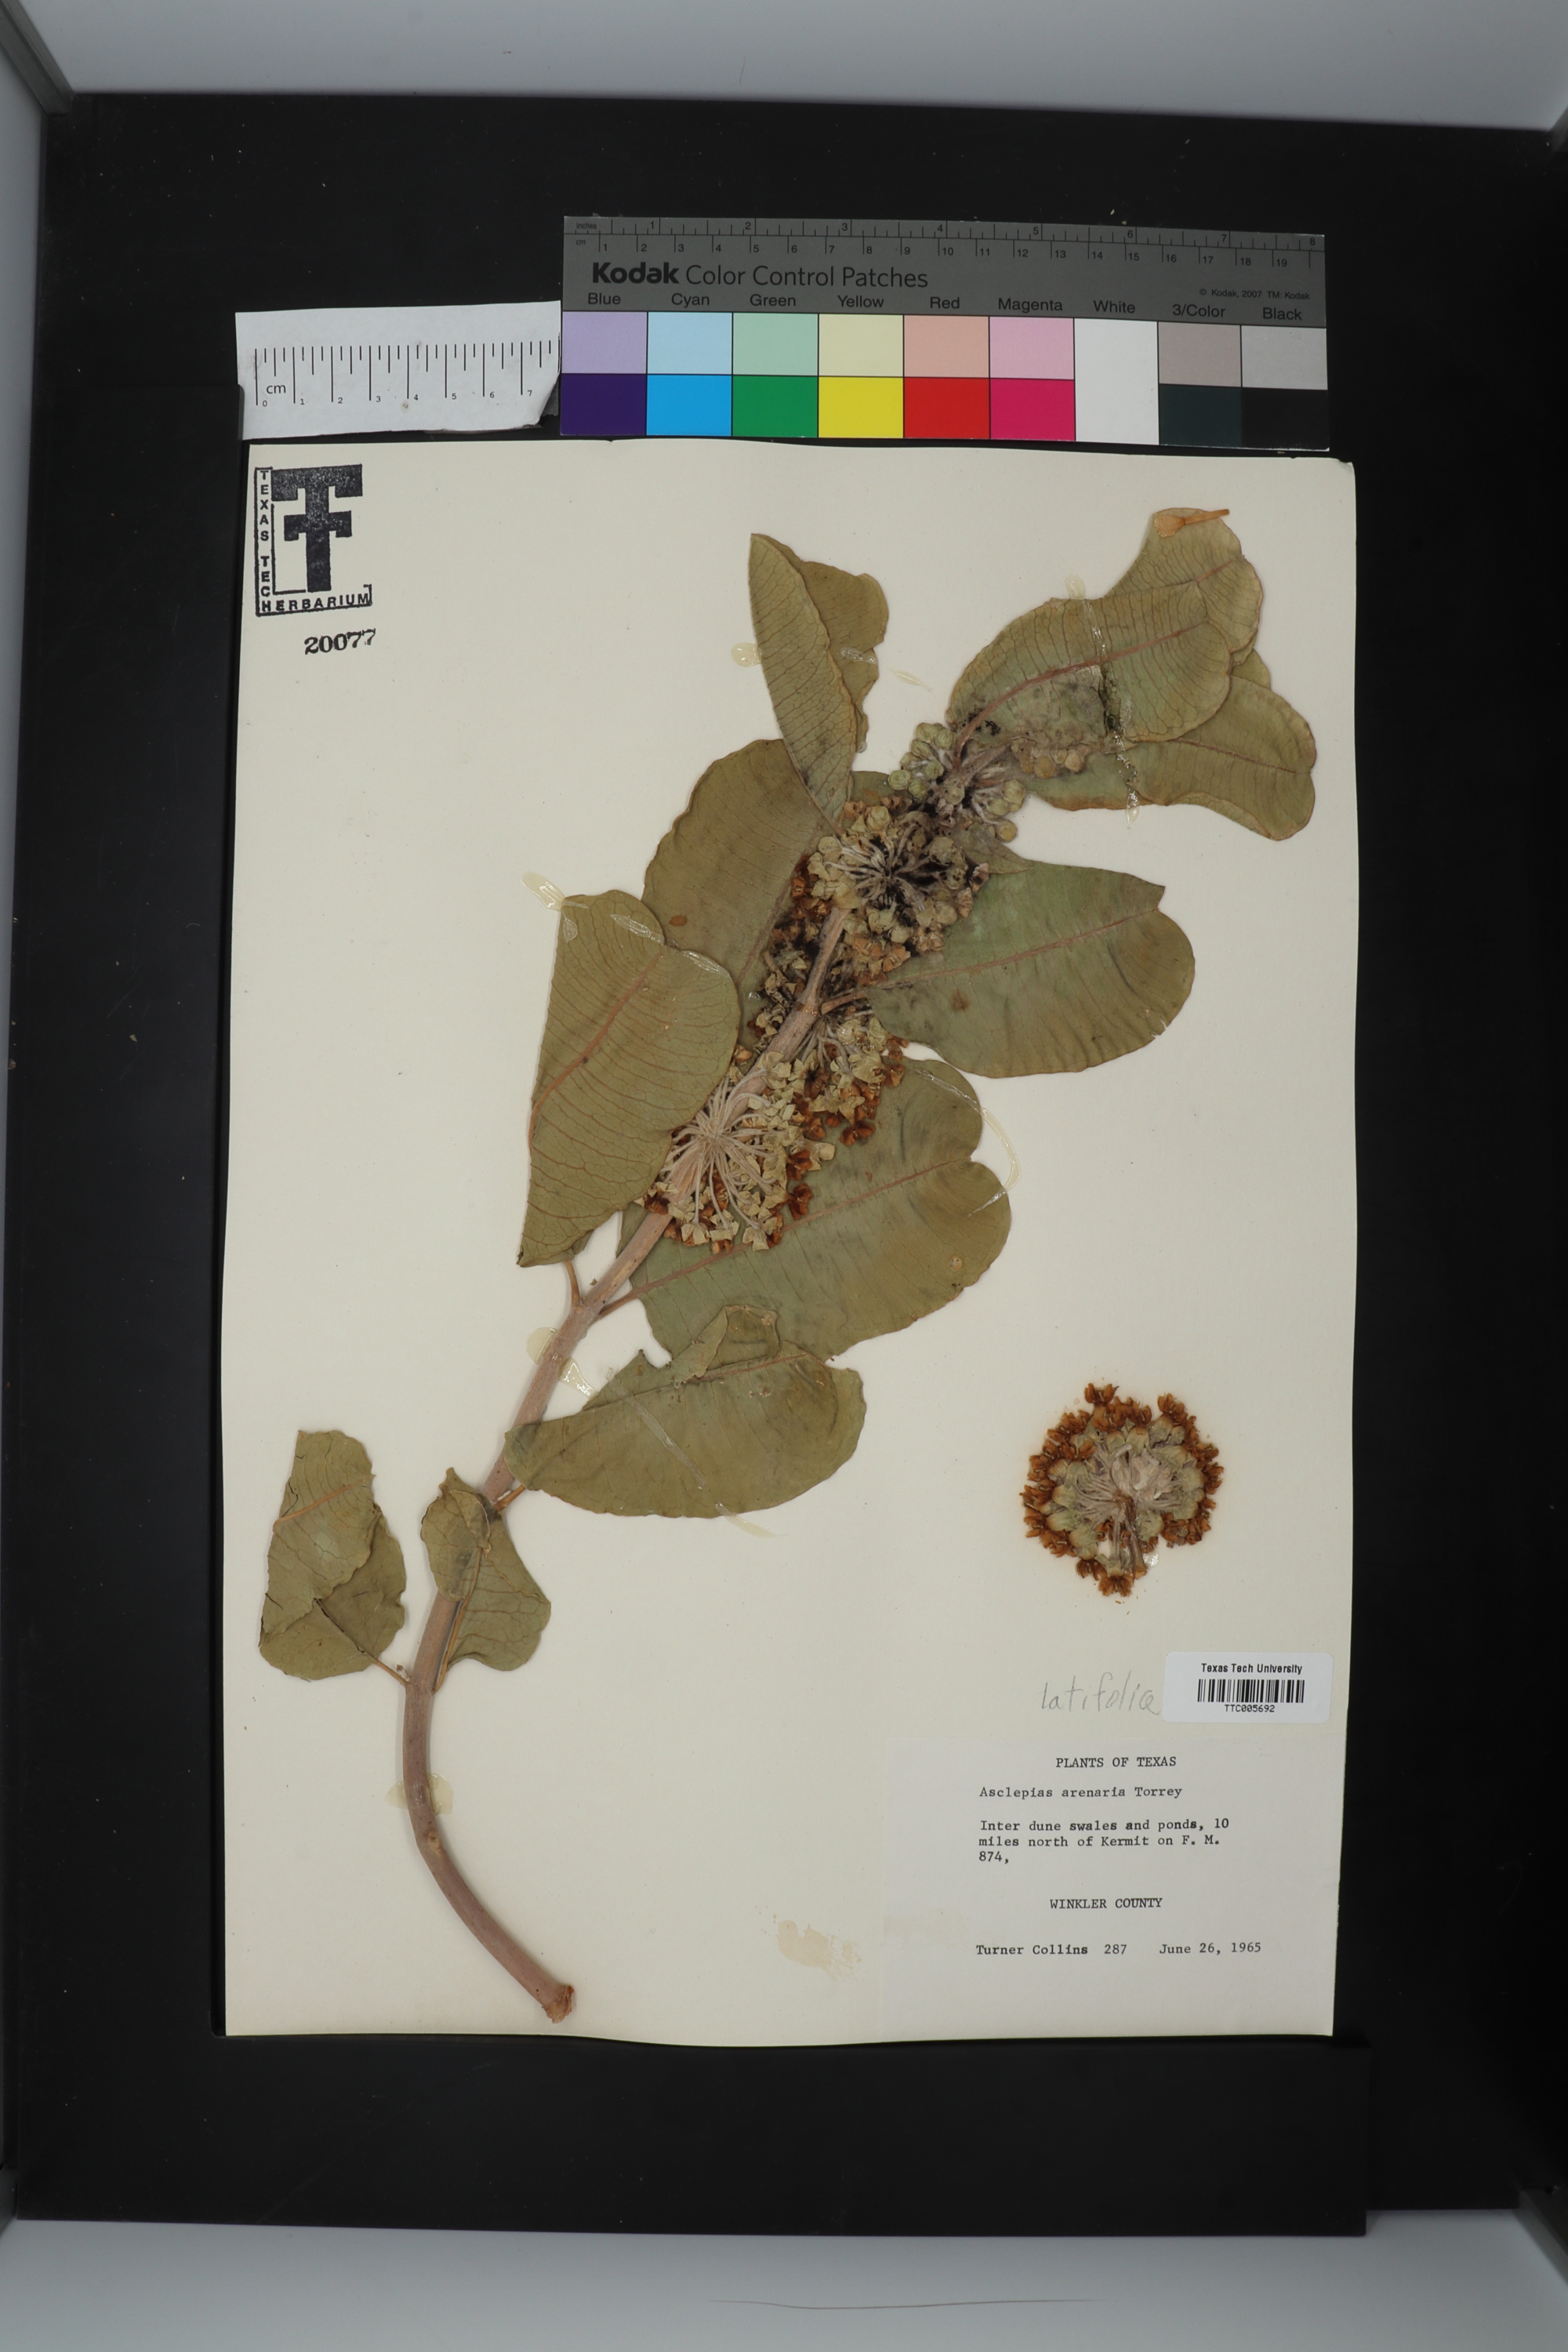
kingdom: Plantae
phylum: Tracheophyta
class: Magnoliopsida
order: Gentianales
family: Apocynaceae
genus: Asclepias
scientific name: Asclepias latifolia
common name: Broadleaf milkweed
